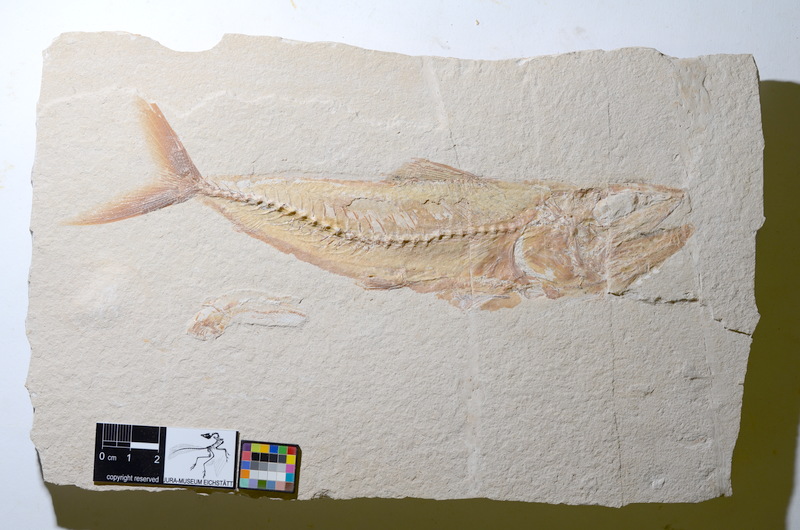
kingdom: Animalia
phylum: Chordata
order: Aulopiformes
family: Halecidae
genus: Phylactocephalus
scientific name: Phylactocephalus microlepis
